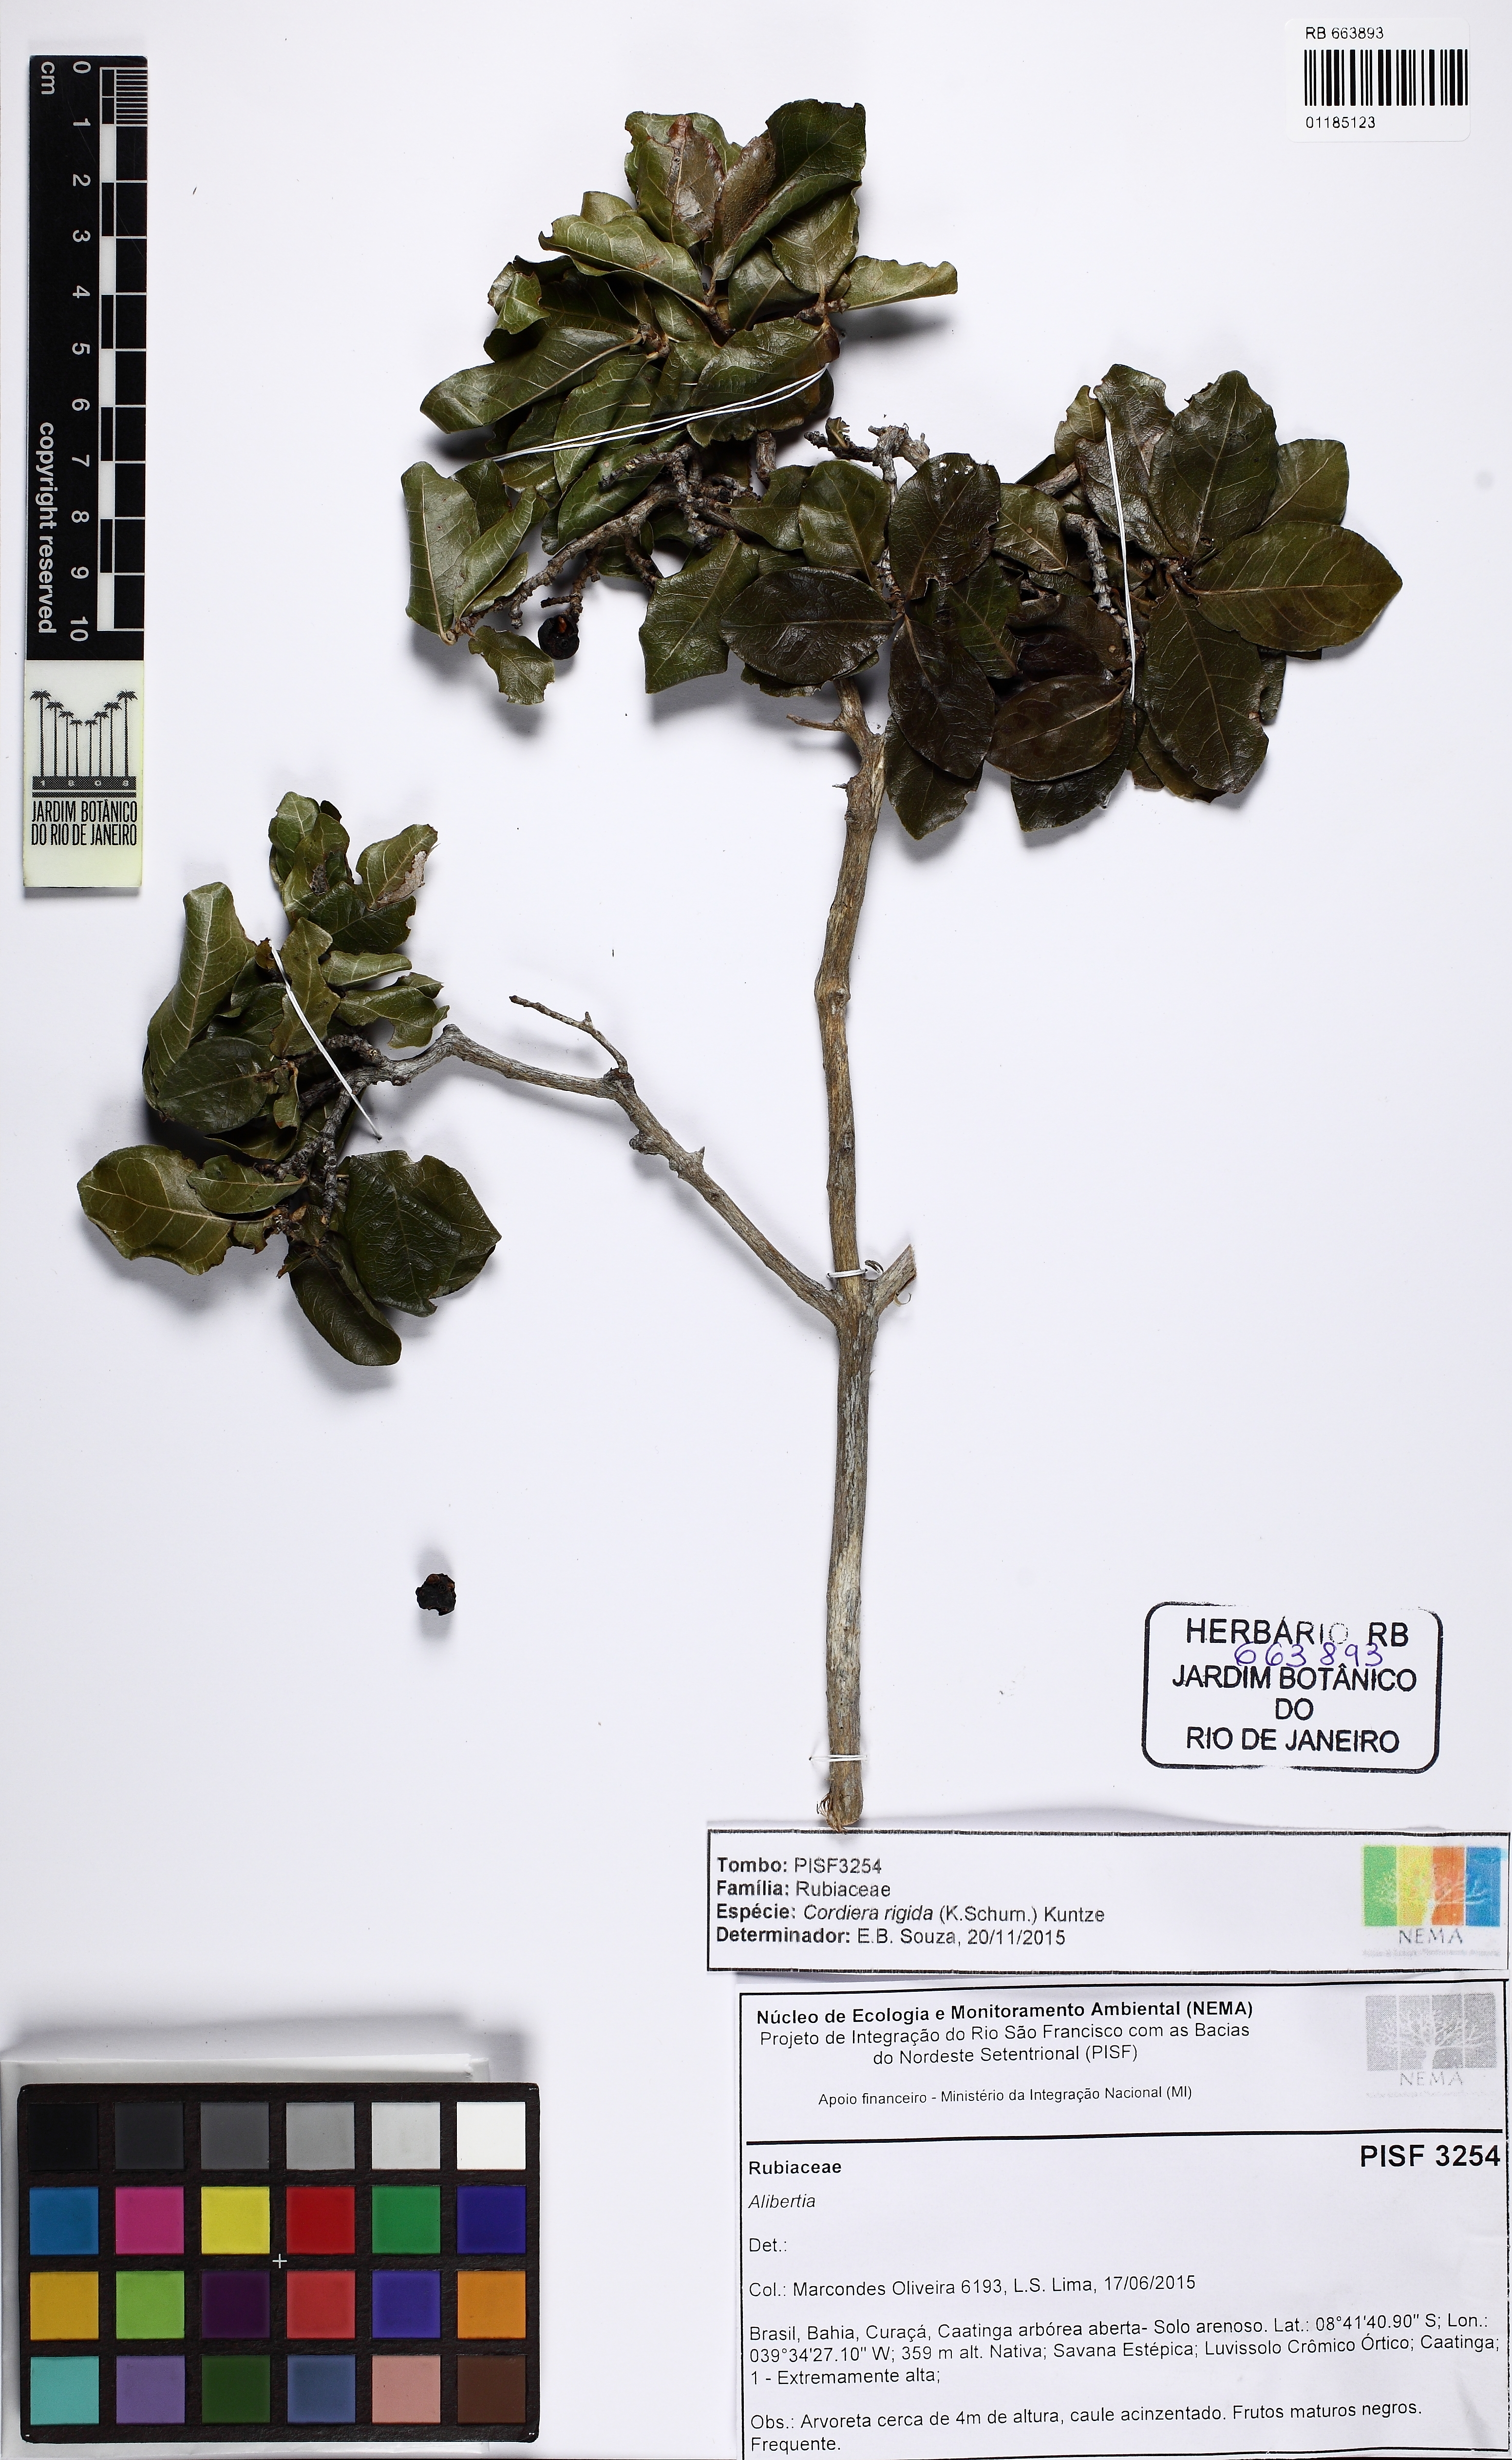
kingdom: Plantae
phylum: Tracheophyta
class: Magnoliopsida
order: Gentianales
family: Rubiaceae
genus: Cordiera
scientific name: Cordiera rigida
